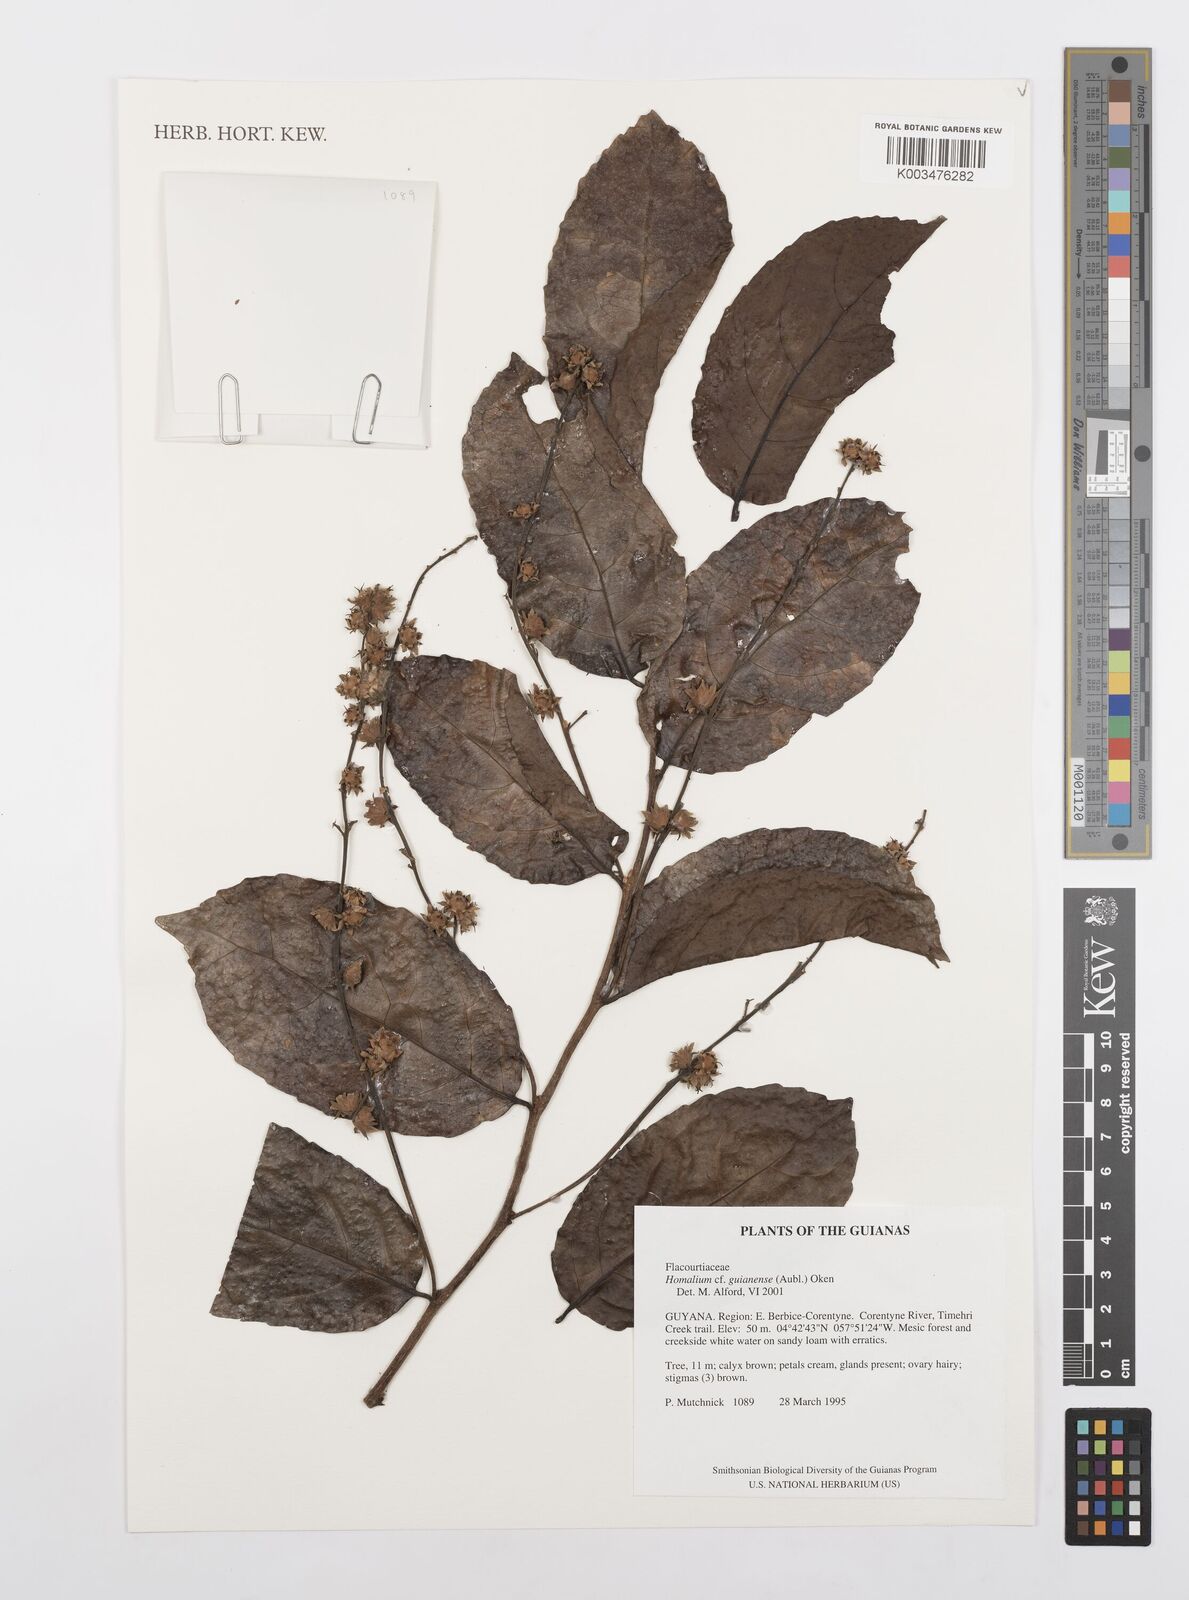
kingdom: Plantae
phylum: Tracheophyta
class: Magnoliopsida
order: Malpighiales
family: Salicaceae
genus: Homalium
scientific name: Homalium guianense
